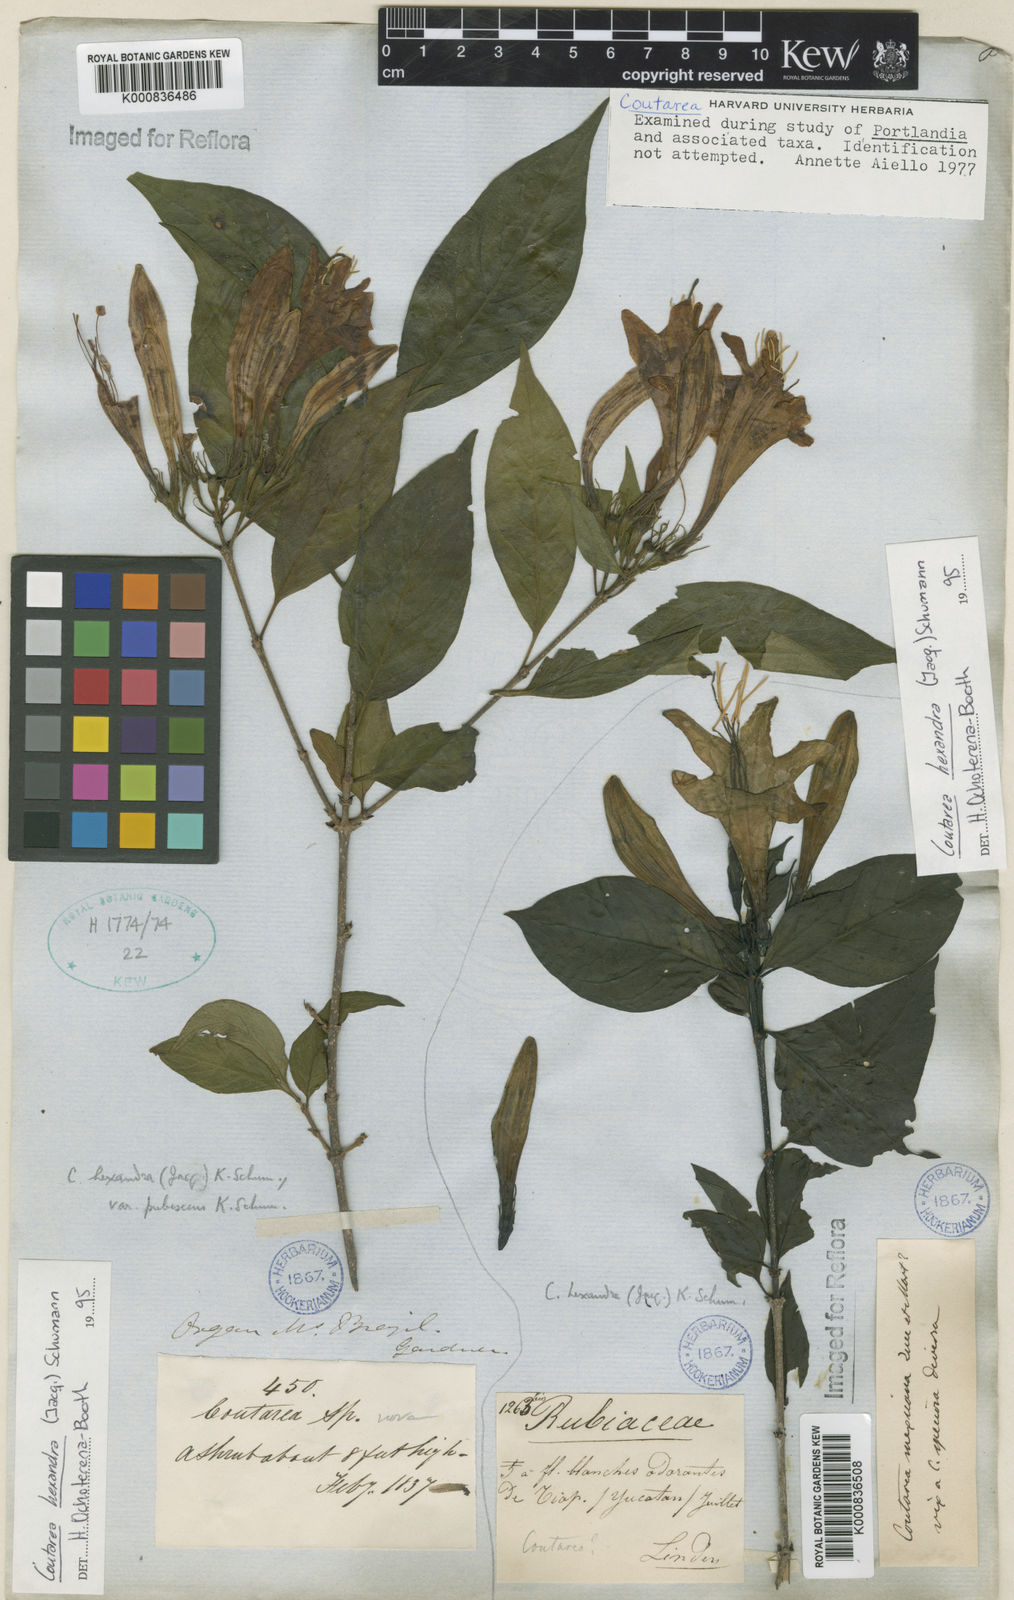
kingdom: Plantae
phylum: Tracheophyta
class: Magnoliopsida
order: Gentianales
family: Rubiaceae
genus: Coutarea
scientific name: Coutarea hexandra
